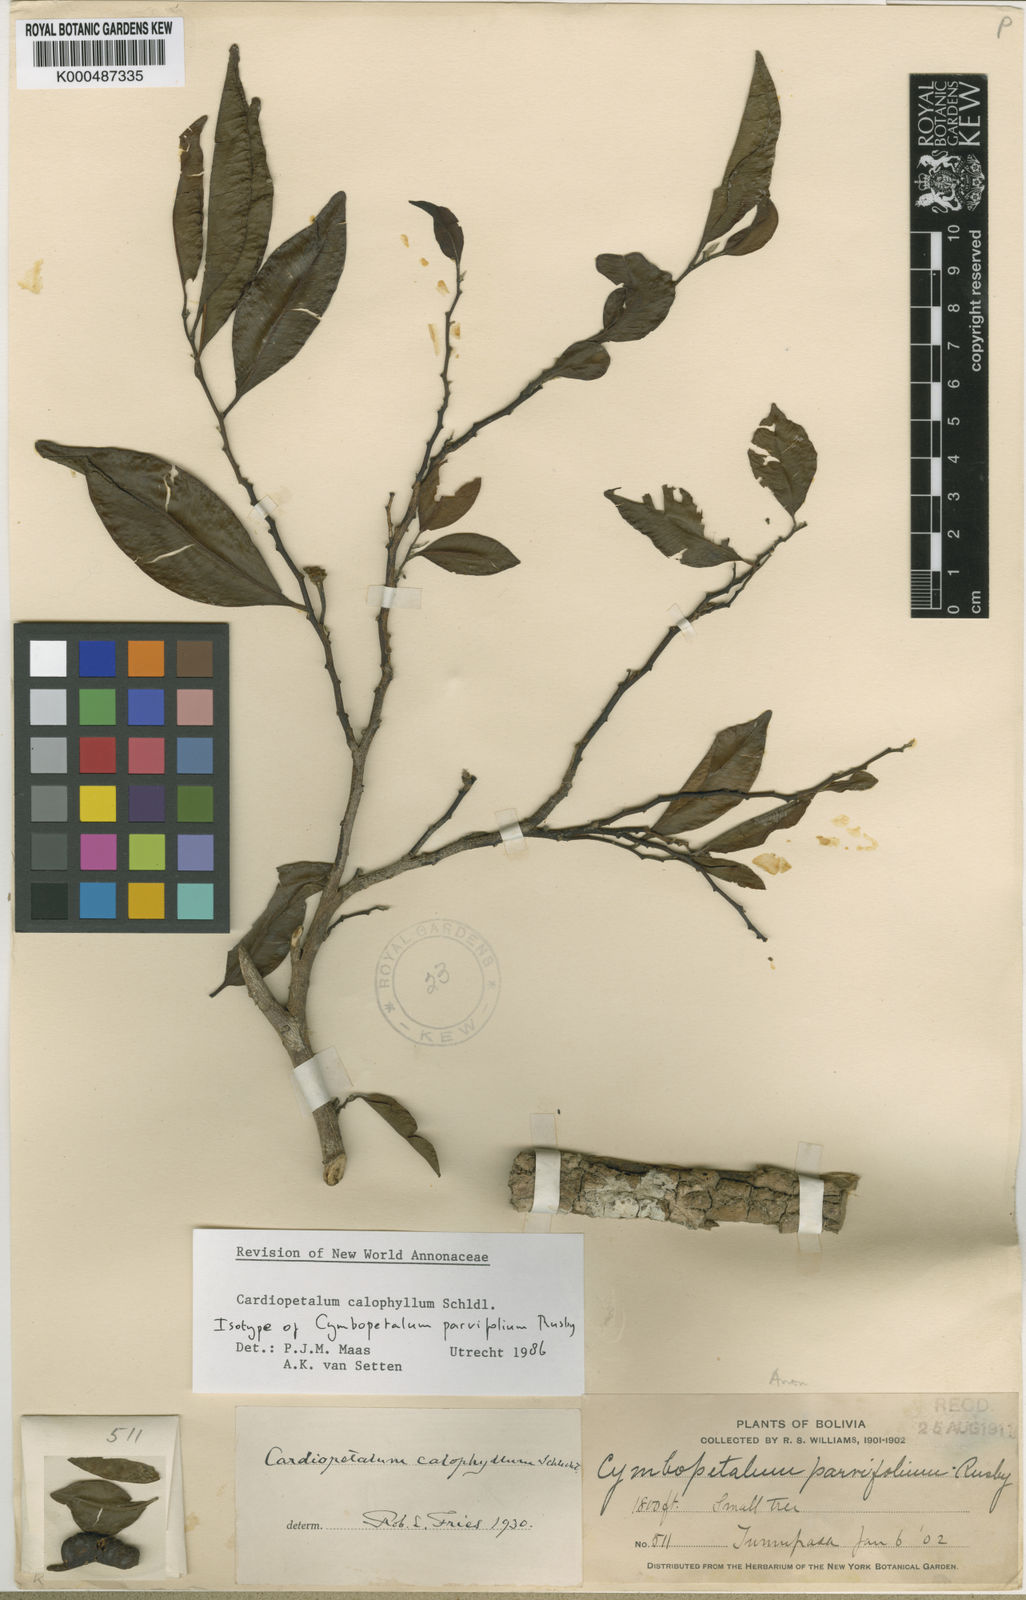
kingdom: Plantae
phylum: Tracheophyta
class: Magnoliopsida
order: Magnoliales
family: Annonaceae
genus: Cardiopetalum
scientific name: Cardiopetalum calophyllum
